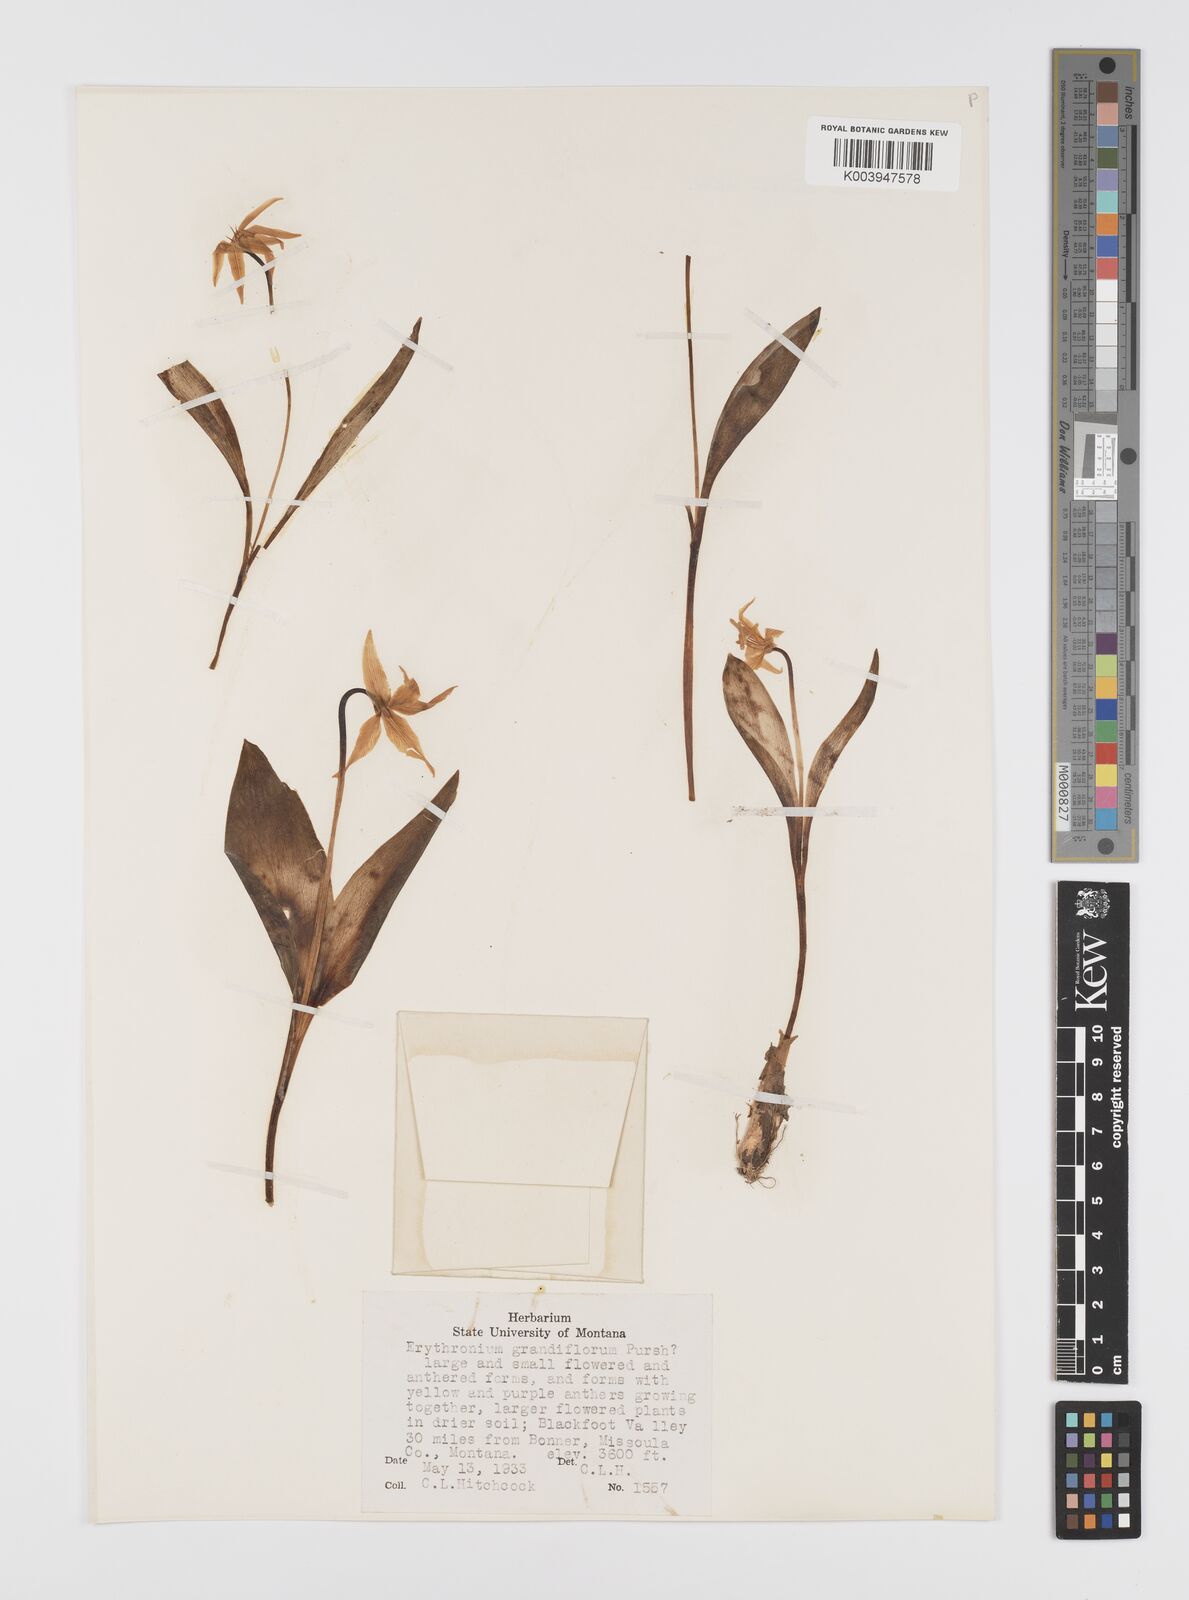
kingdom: Plantae
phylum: Tracheophyta
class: Liliopsida
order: Liliales
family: Liliaceae
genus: Erythronium
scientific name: Erythronium grandiflorum
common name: Avalanche-lily
